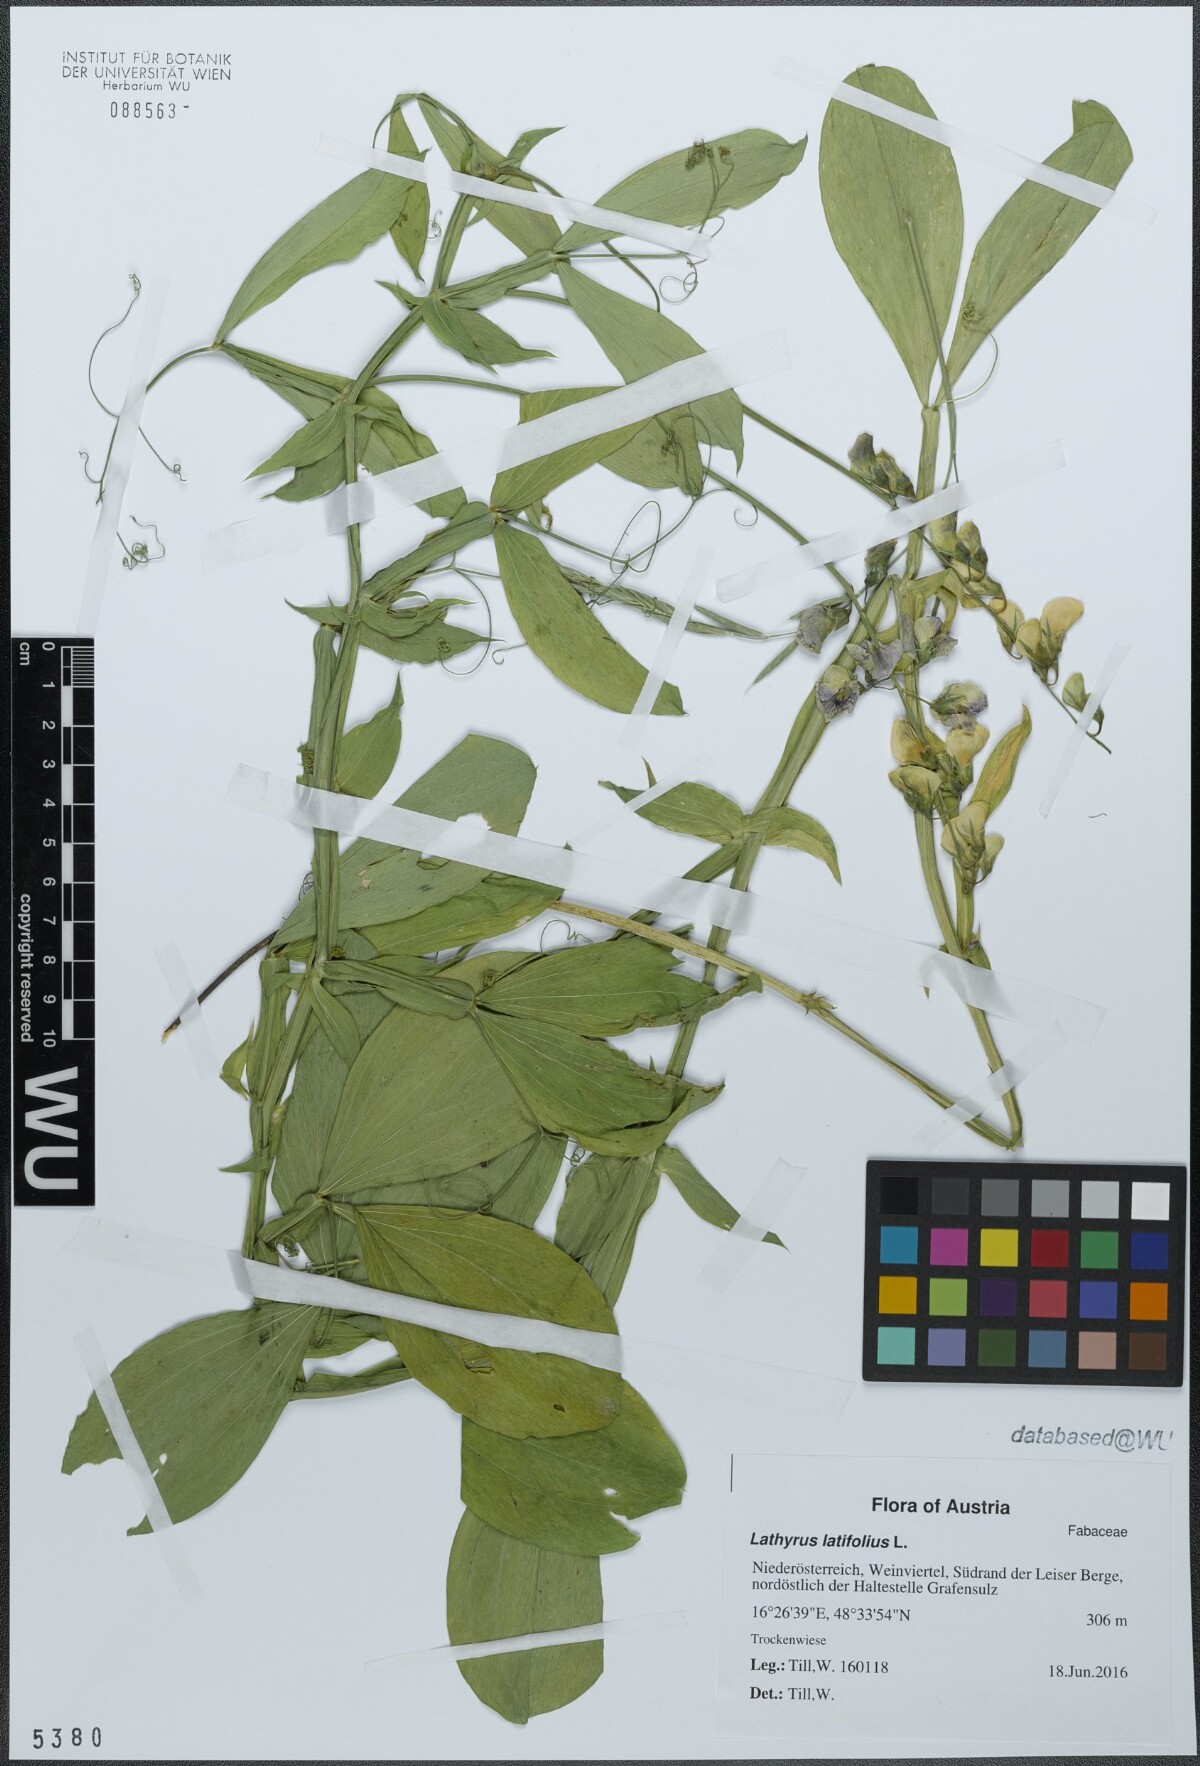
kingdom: Plantae
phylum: Tracheophyta
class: Magnoliopsida
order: Fabales
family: Fabaceae
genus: Lathyrus
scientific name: Lathyrus latifolius
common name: Perennial pea
